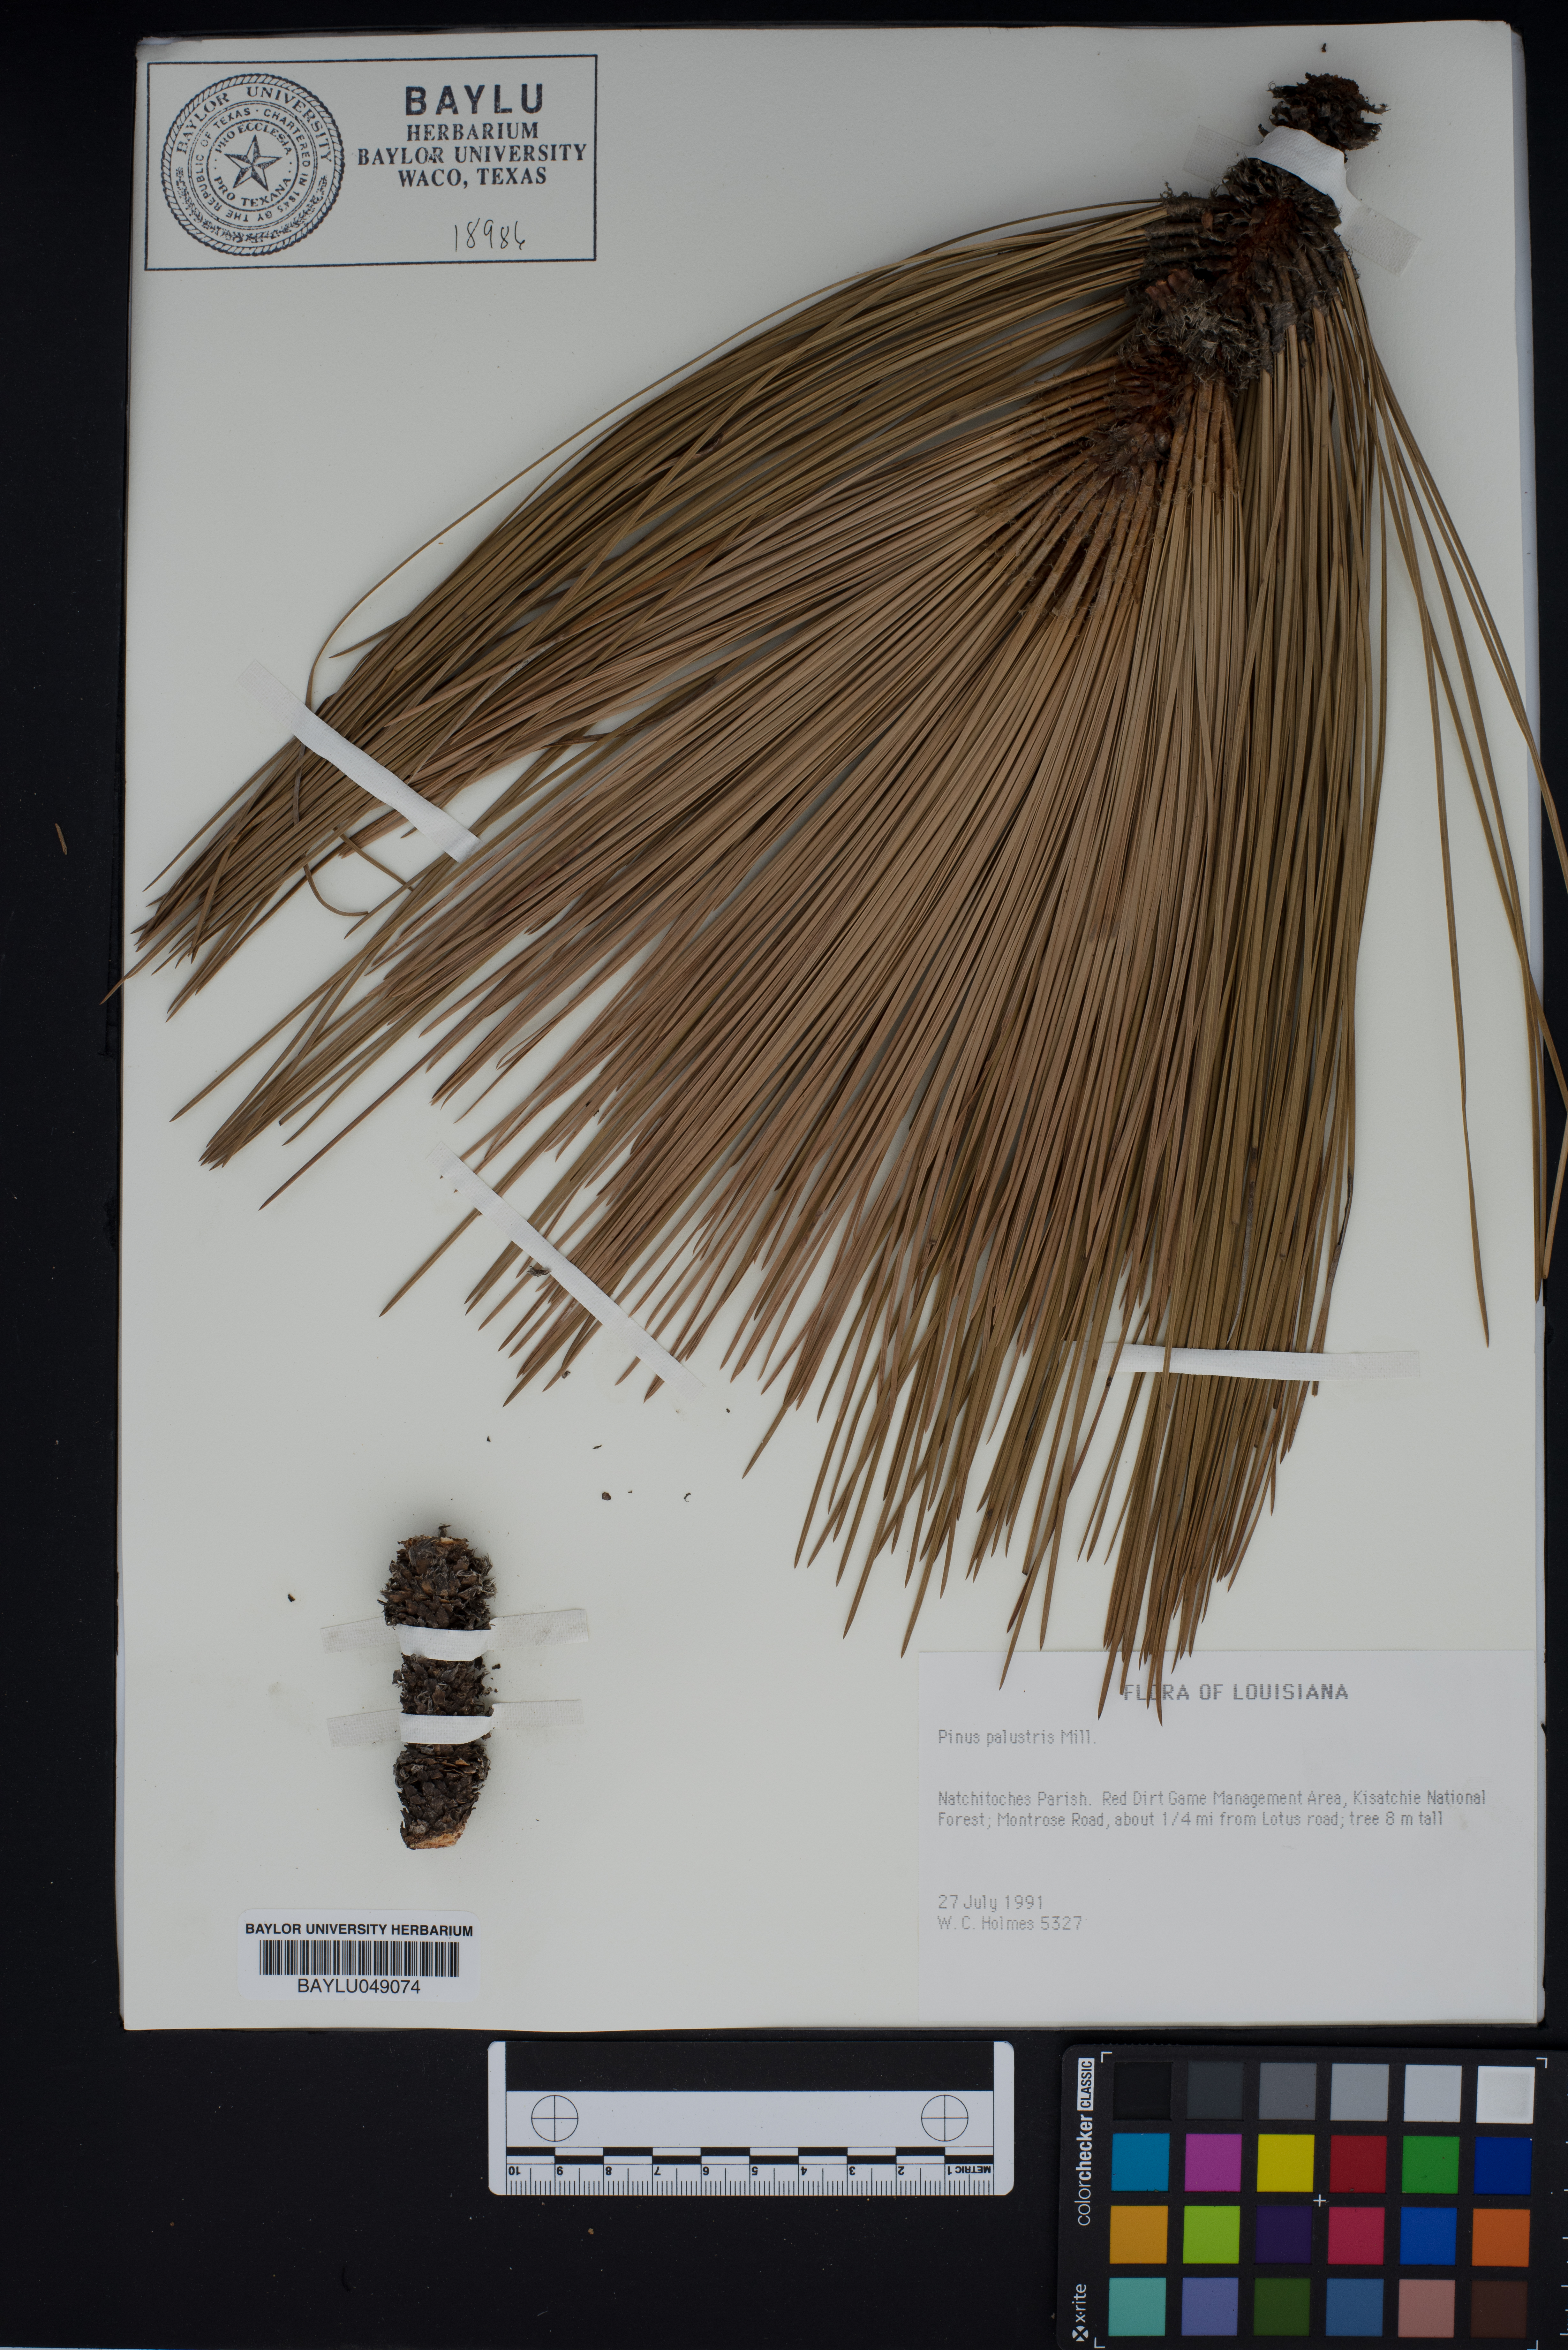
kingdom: Plantae
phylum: Tracheophyta
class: Pinopsida
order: Pinales
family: Pinaceae
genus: Pinus
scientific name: Pinus palustris
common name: Longleaf pine
